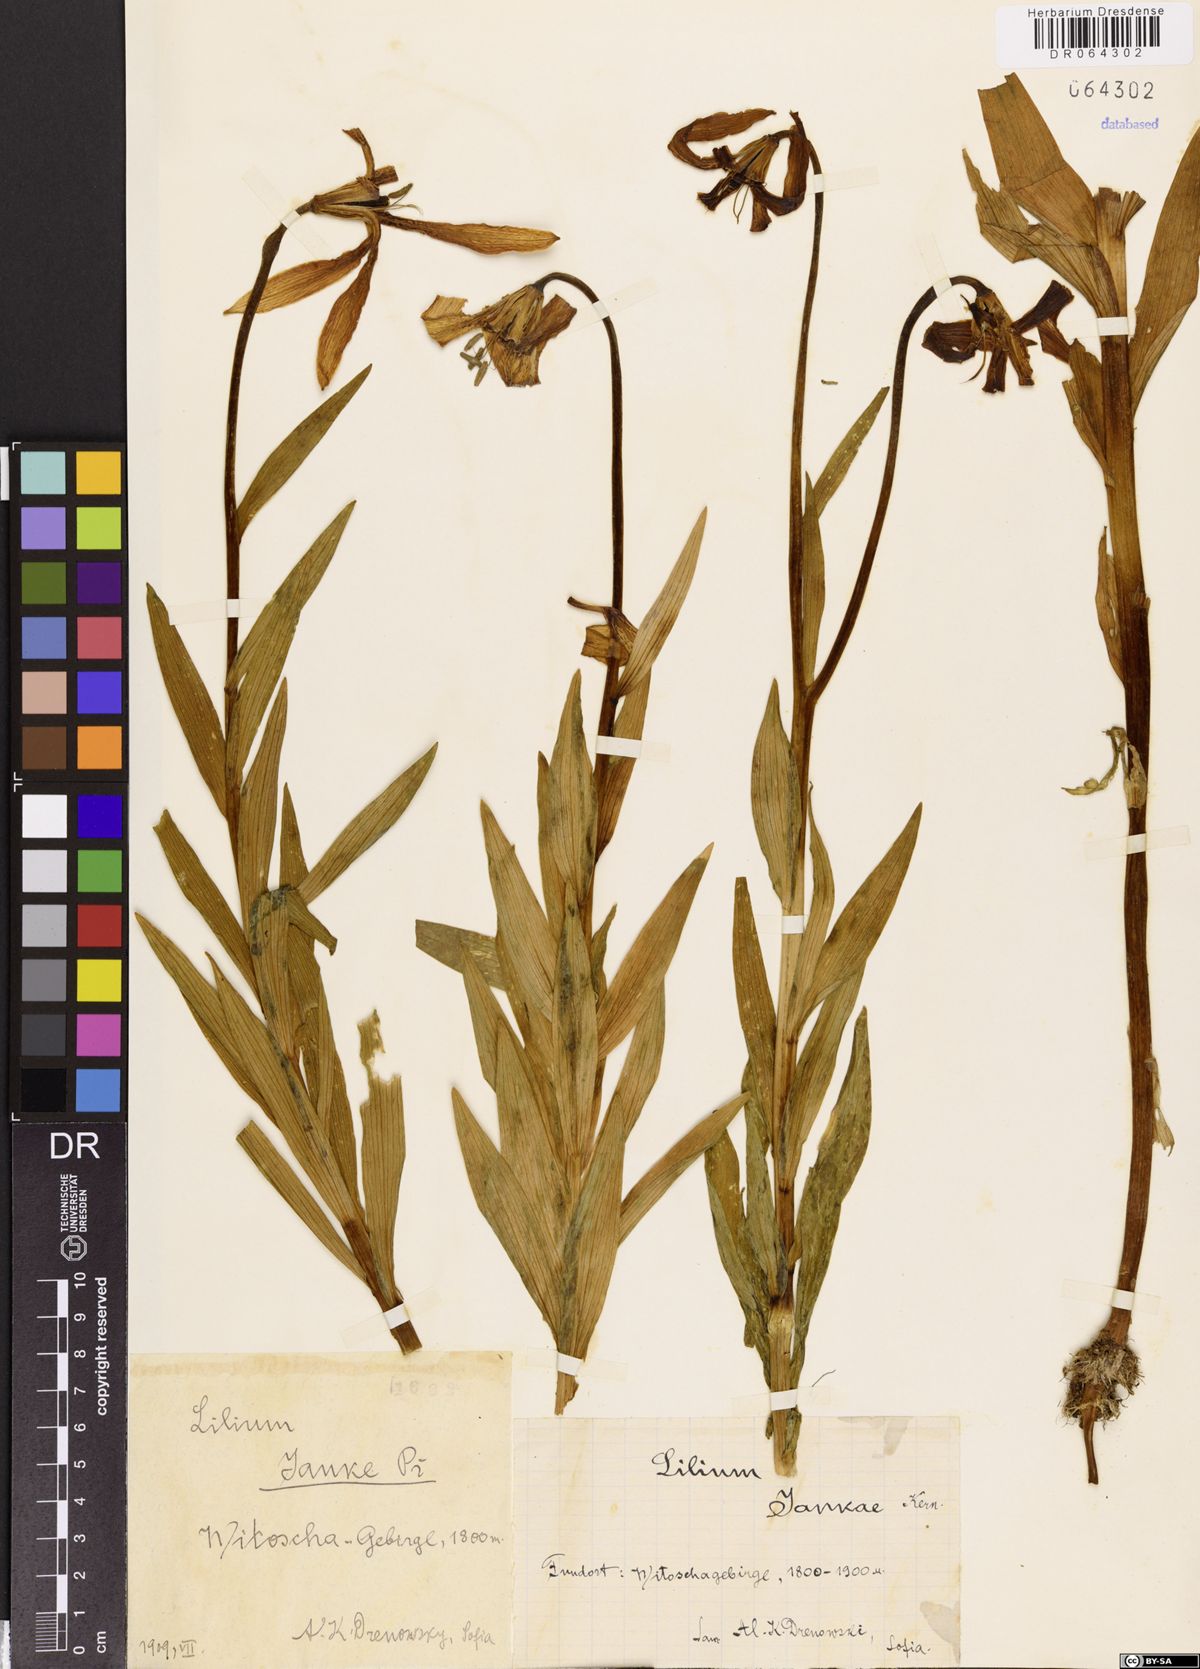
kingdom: Plantae
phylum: Tracheophyta
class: Liliopsida
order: Liliales
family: Liliaceae
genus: Lilium
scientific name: Lilium jankae
